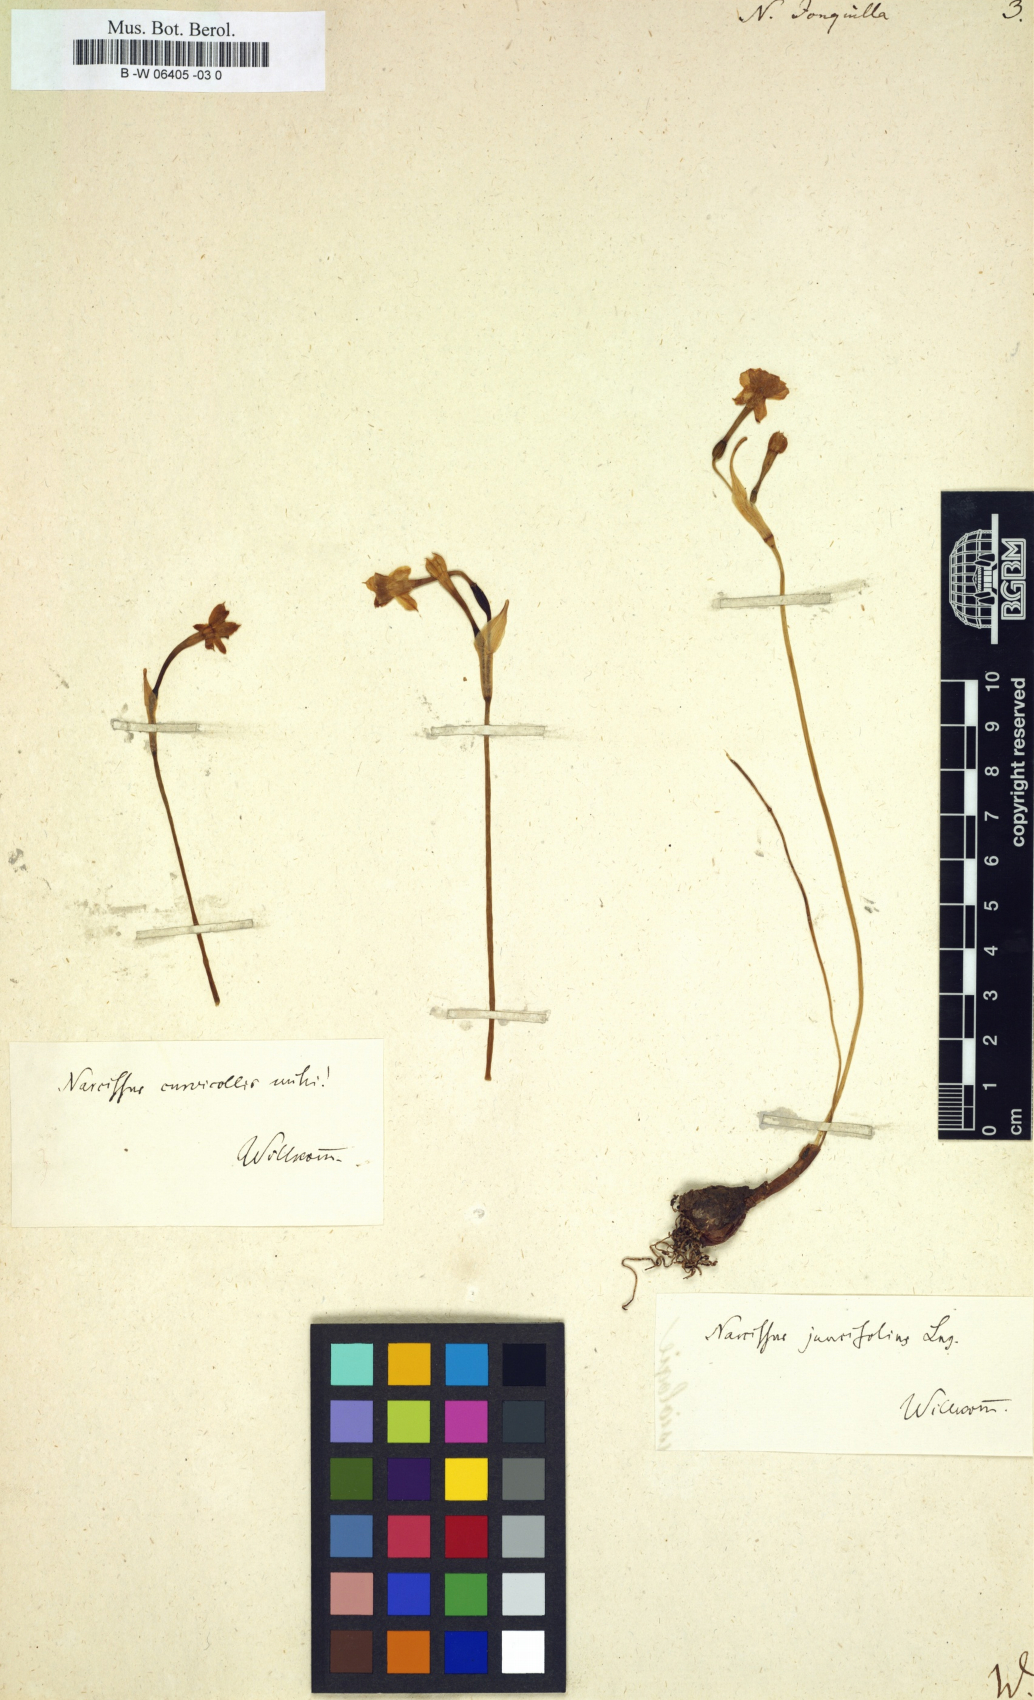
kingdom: Plantae
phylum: Tracheophyta
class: Liliopsida
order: Asparagales
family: Amaryllidaceae
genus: Narcissus
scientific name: Narcissus
